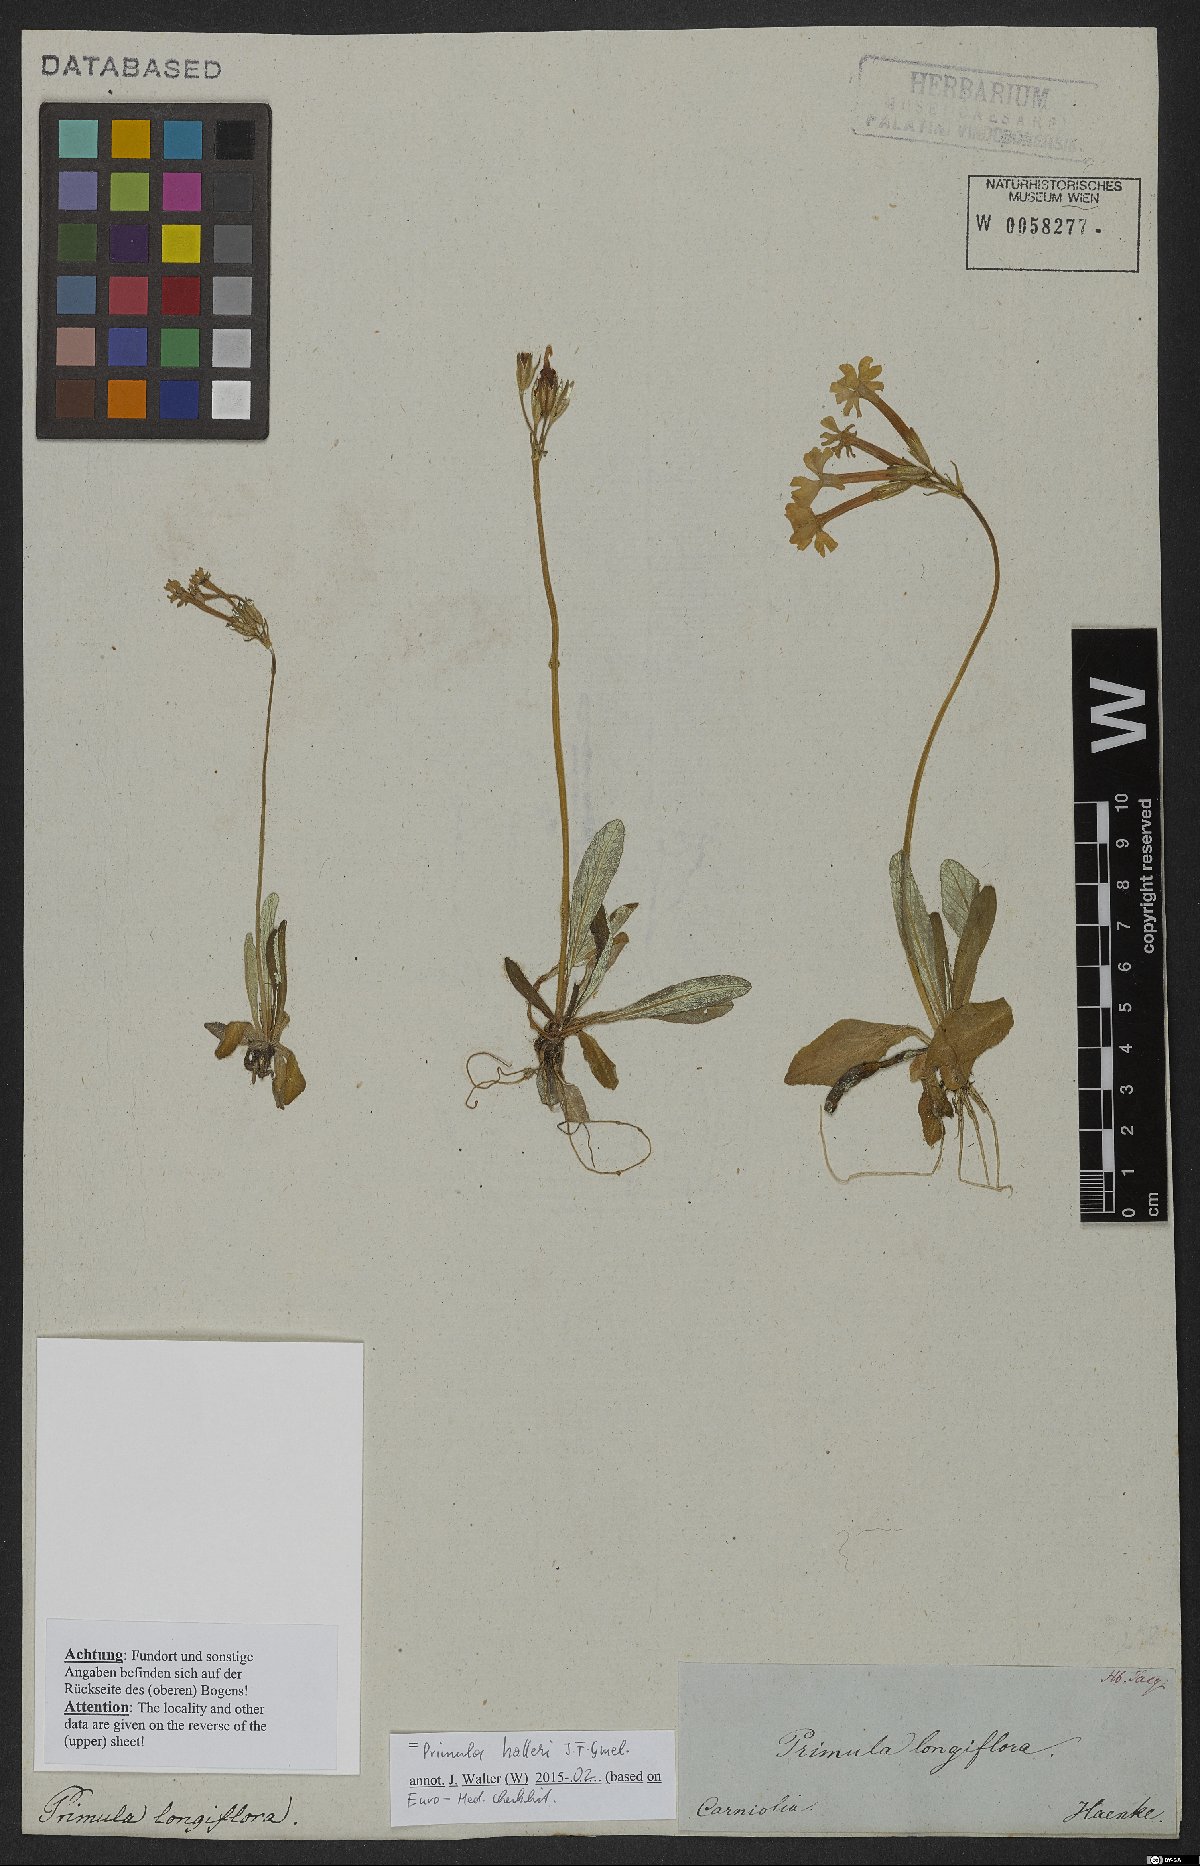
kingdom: Plantae
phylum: Tracheophyta
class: Magnoliopsida
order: Ericales
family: Primulaceae
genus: Primula
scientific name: Primula halleri
